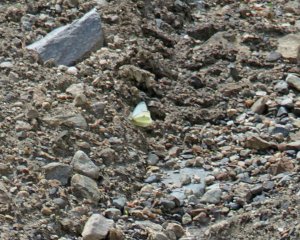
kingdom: Animalia
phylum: Arthropoda
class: Insecta
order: Lepidoptera
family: Pieridae
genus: Pieris
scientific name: Pieris rapae
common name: Cabbage White
